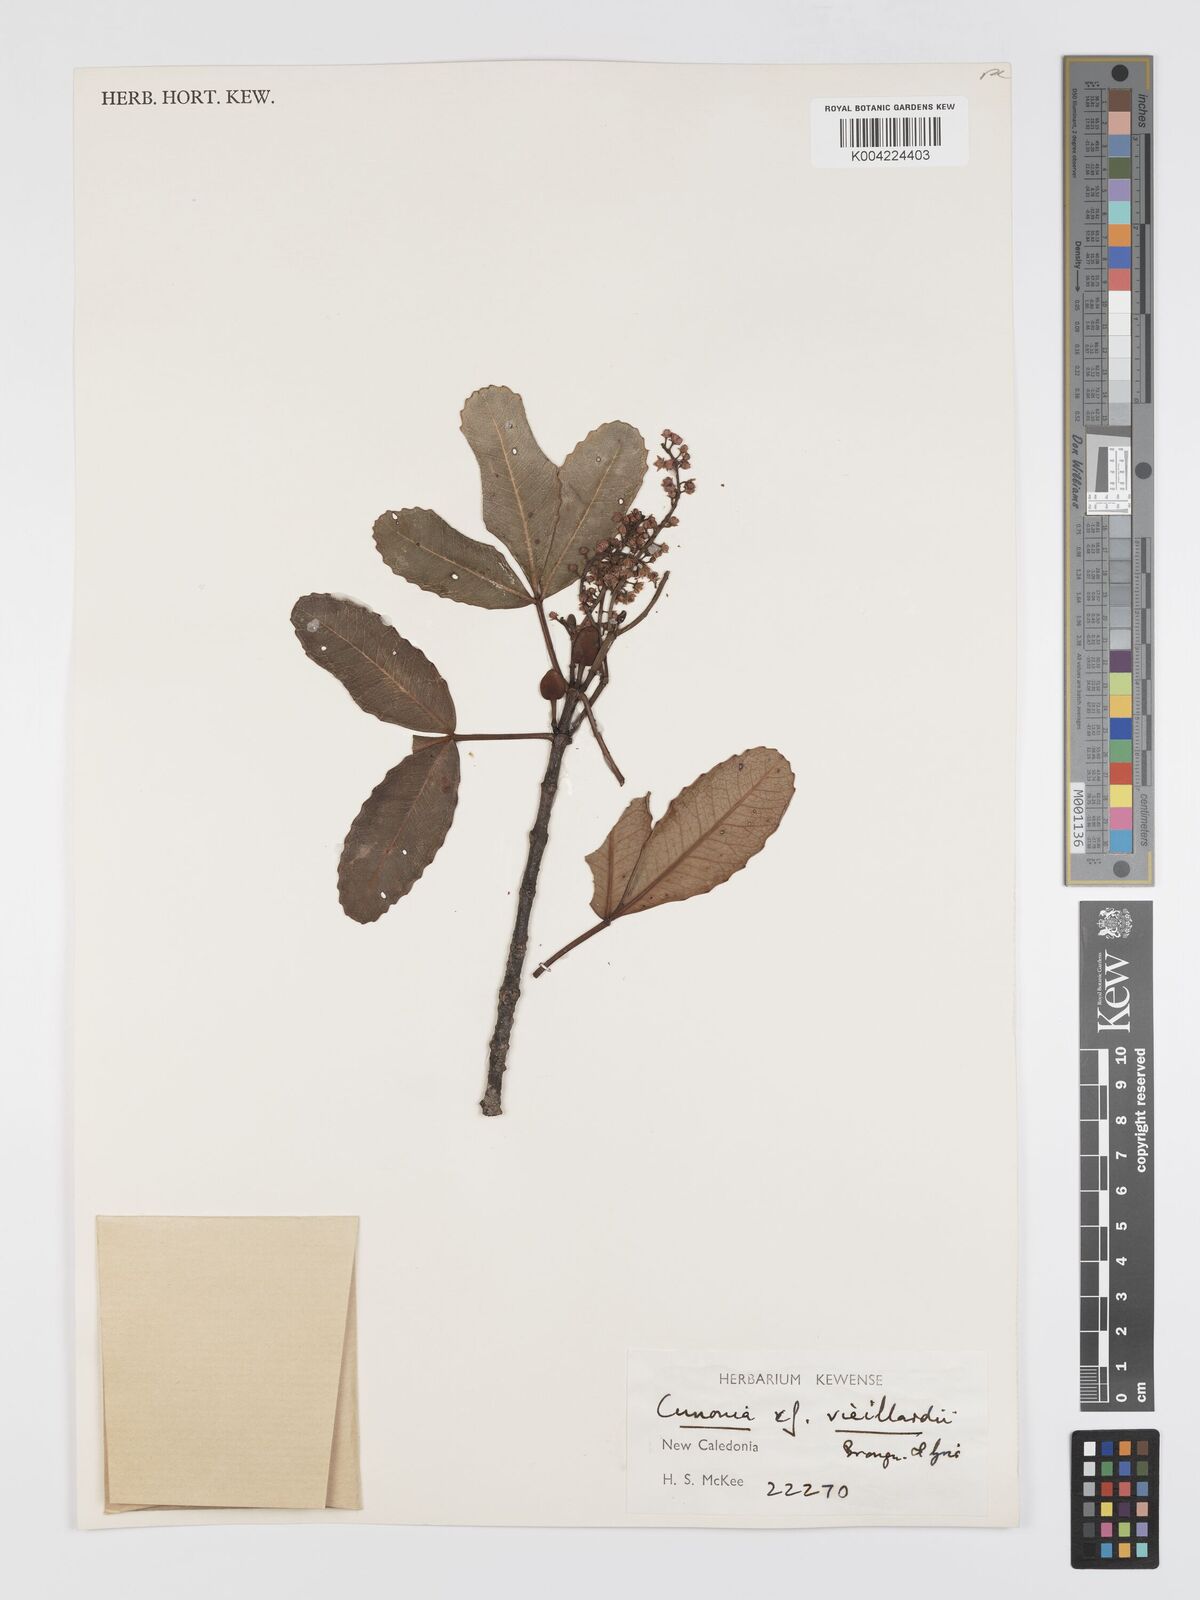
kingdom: Plantae
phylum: Tracheophyta
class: Magnoliopsida
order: Oxalidales
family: Cunoniaceae
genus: Cunonia
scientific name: Cunonia vieillardii
